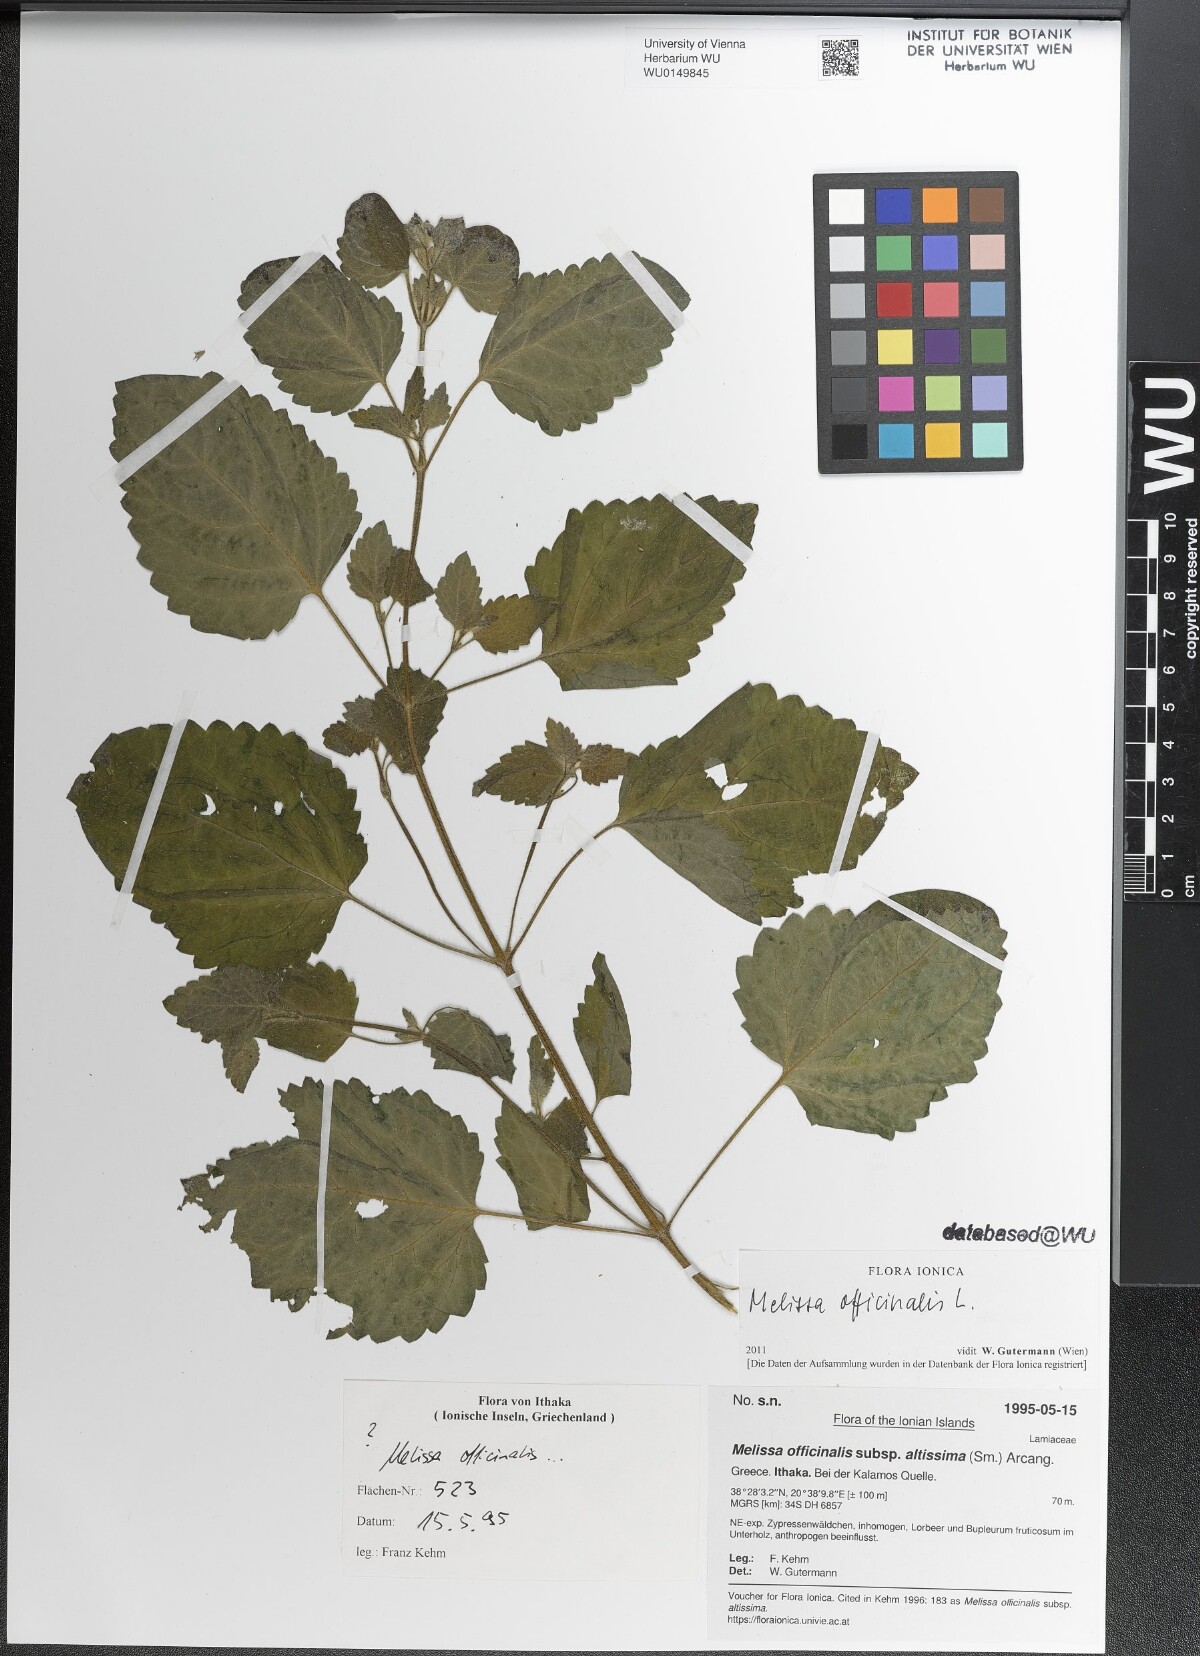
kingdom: Plantae
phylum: Tracheophyta
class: Magnoliopsida
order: Lamiales
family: Lamiaceae
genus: Melissa
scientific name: Melissa officinalis
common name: Balm
